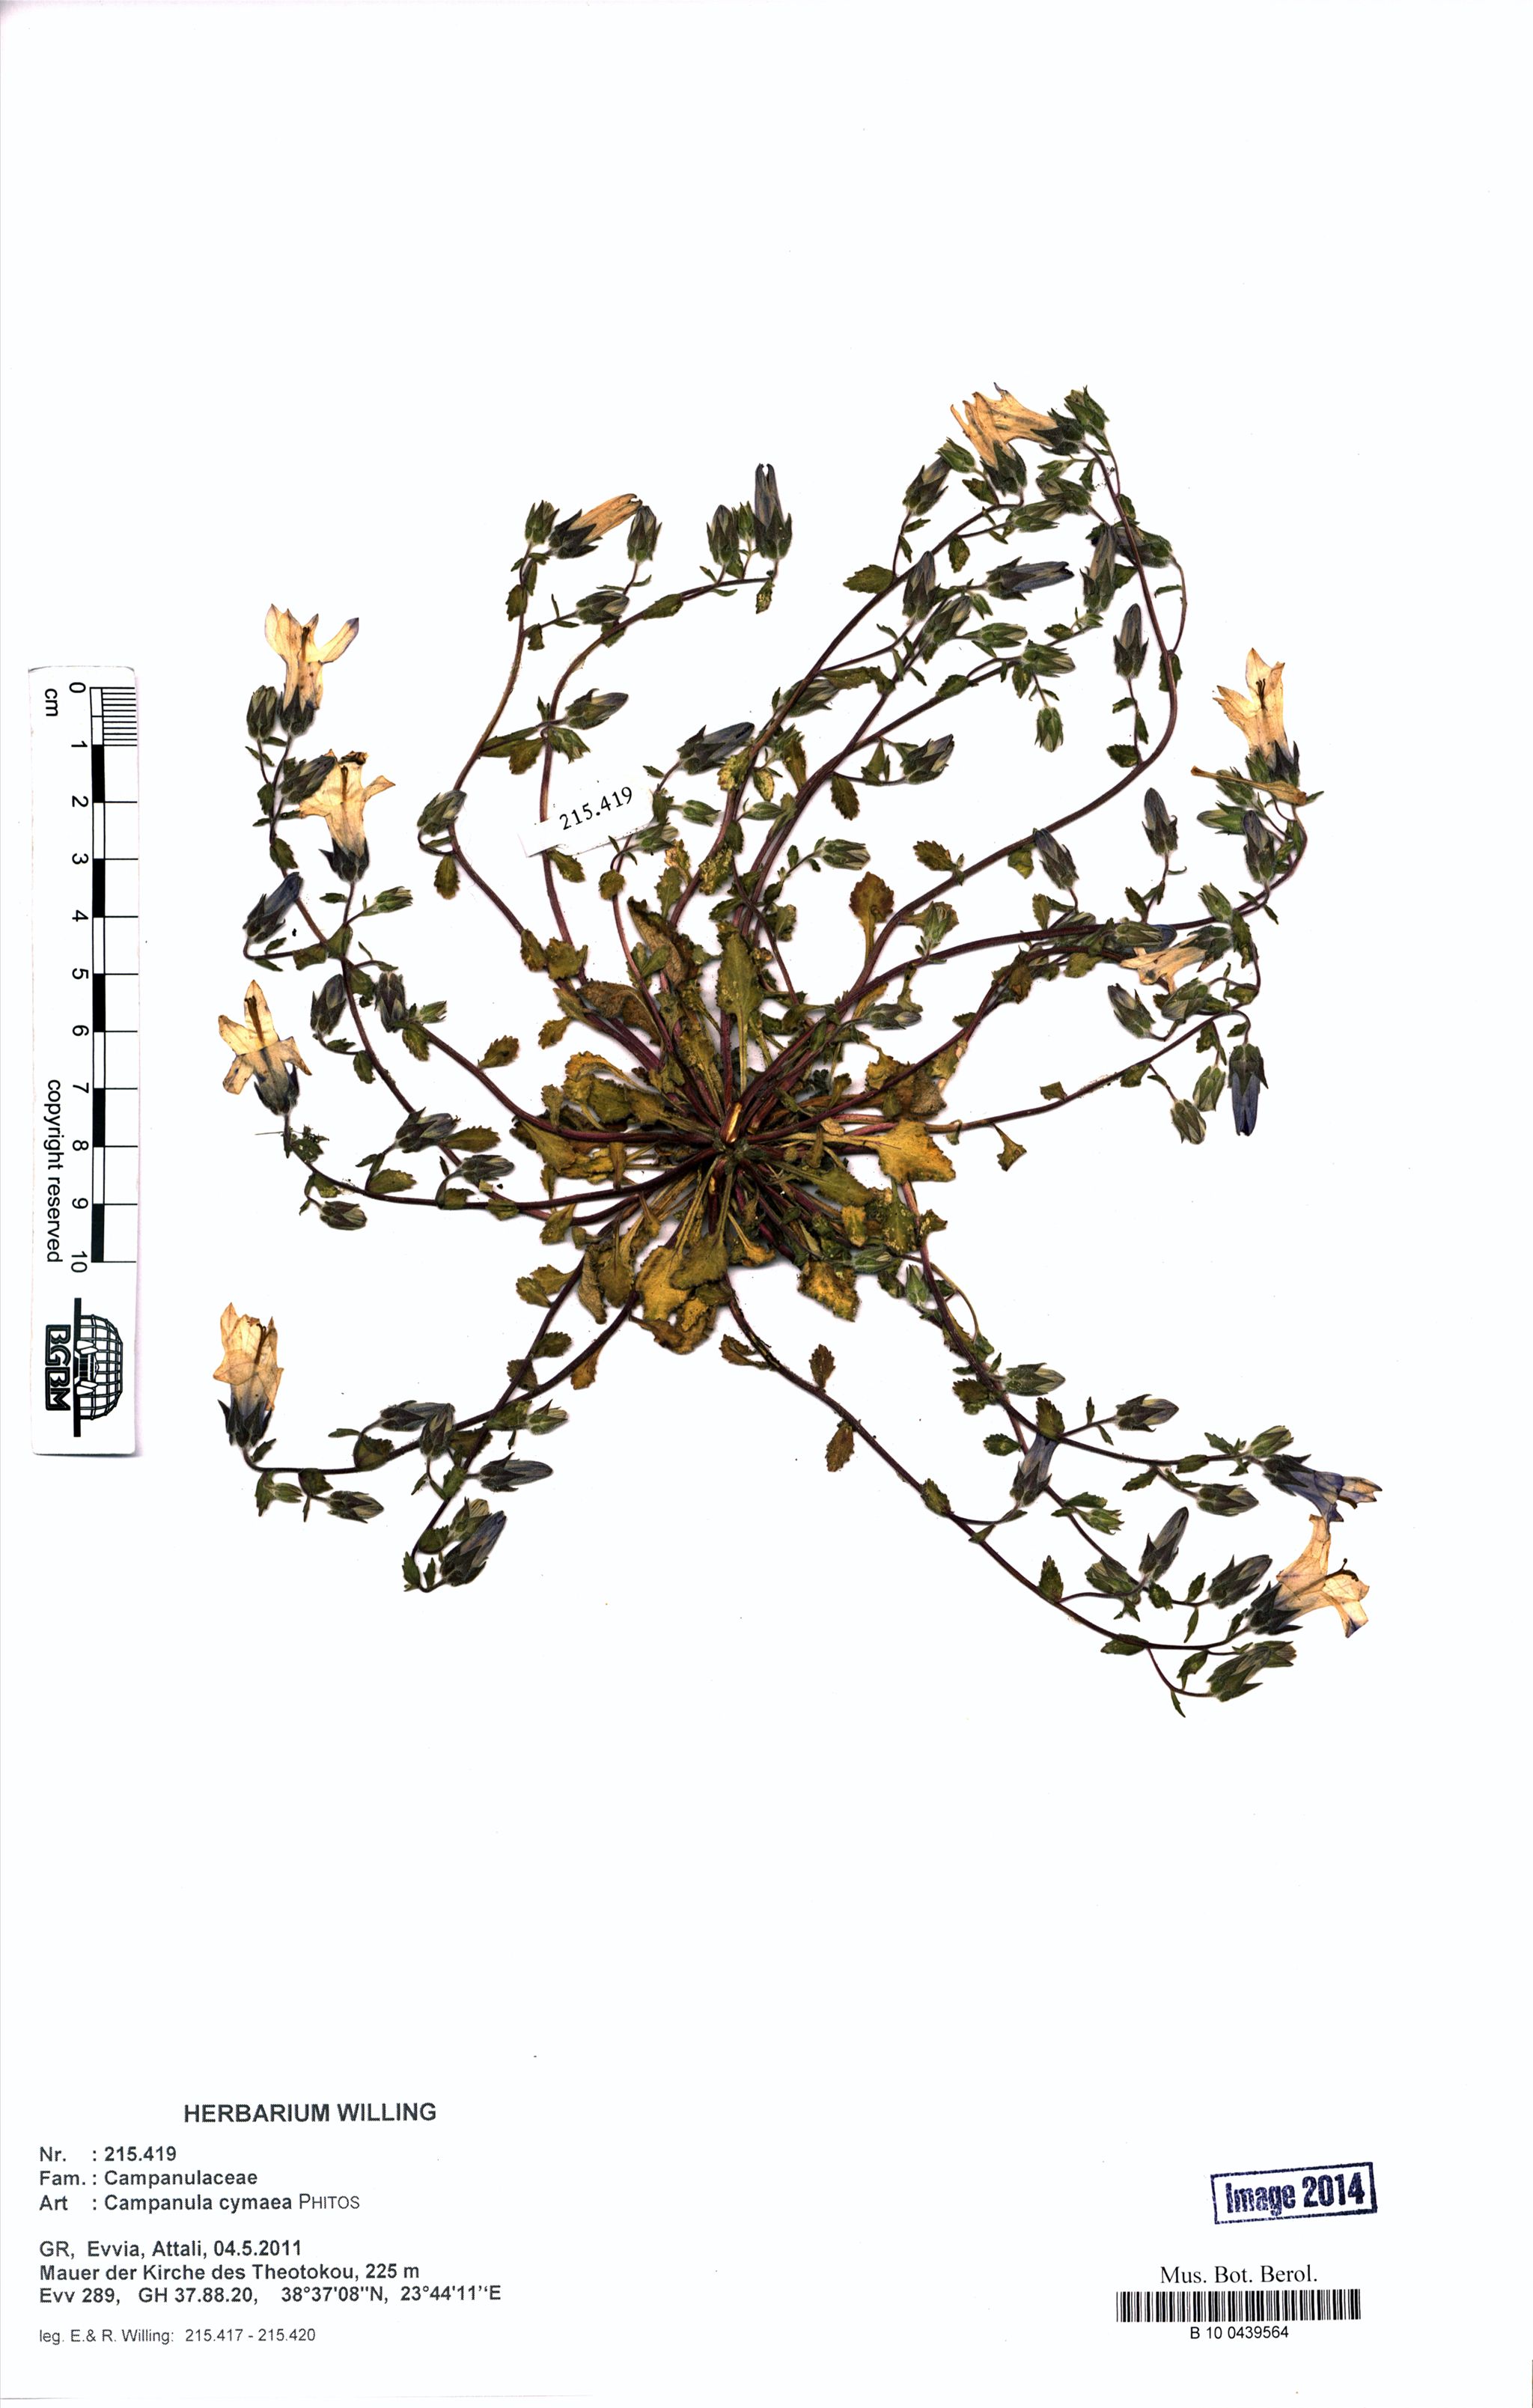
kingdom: Plantae
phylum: Tracheophyta
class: Magnoliopsida
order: Asterales
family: Campanulaceae
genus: Campanula
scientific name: Campanula cymaea
